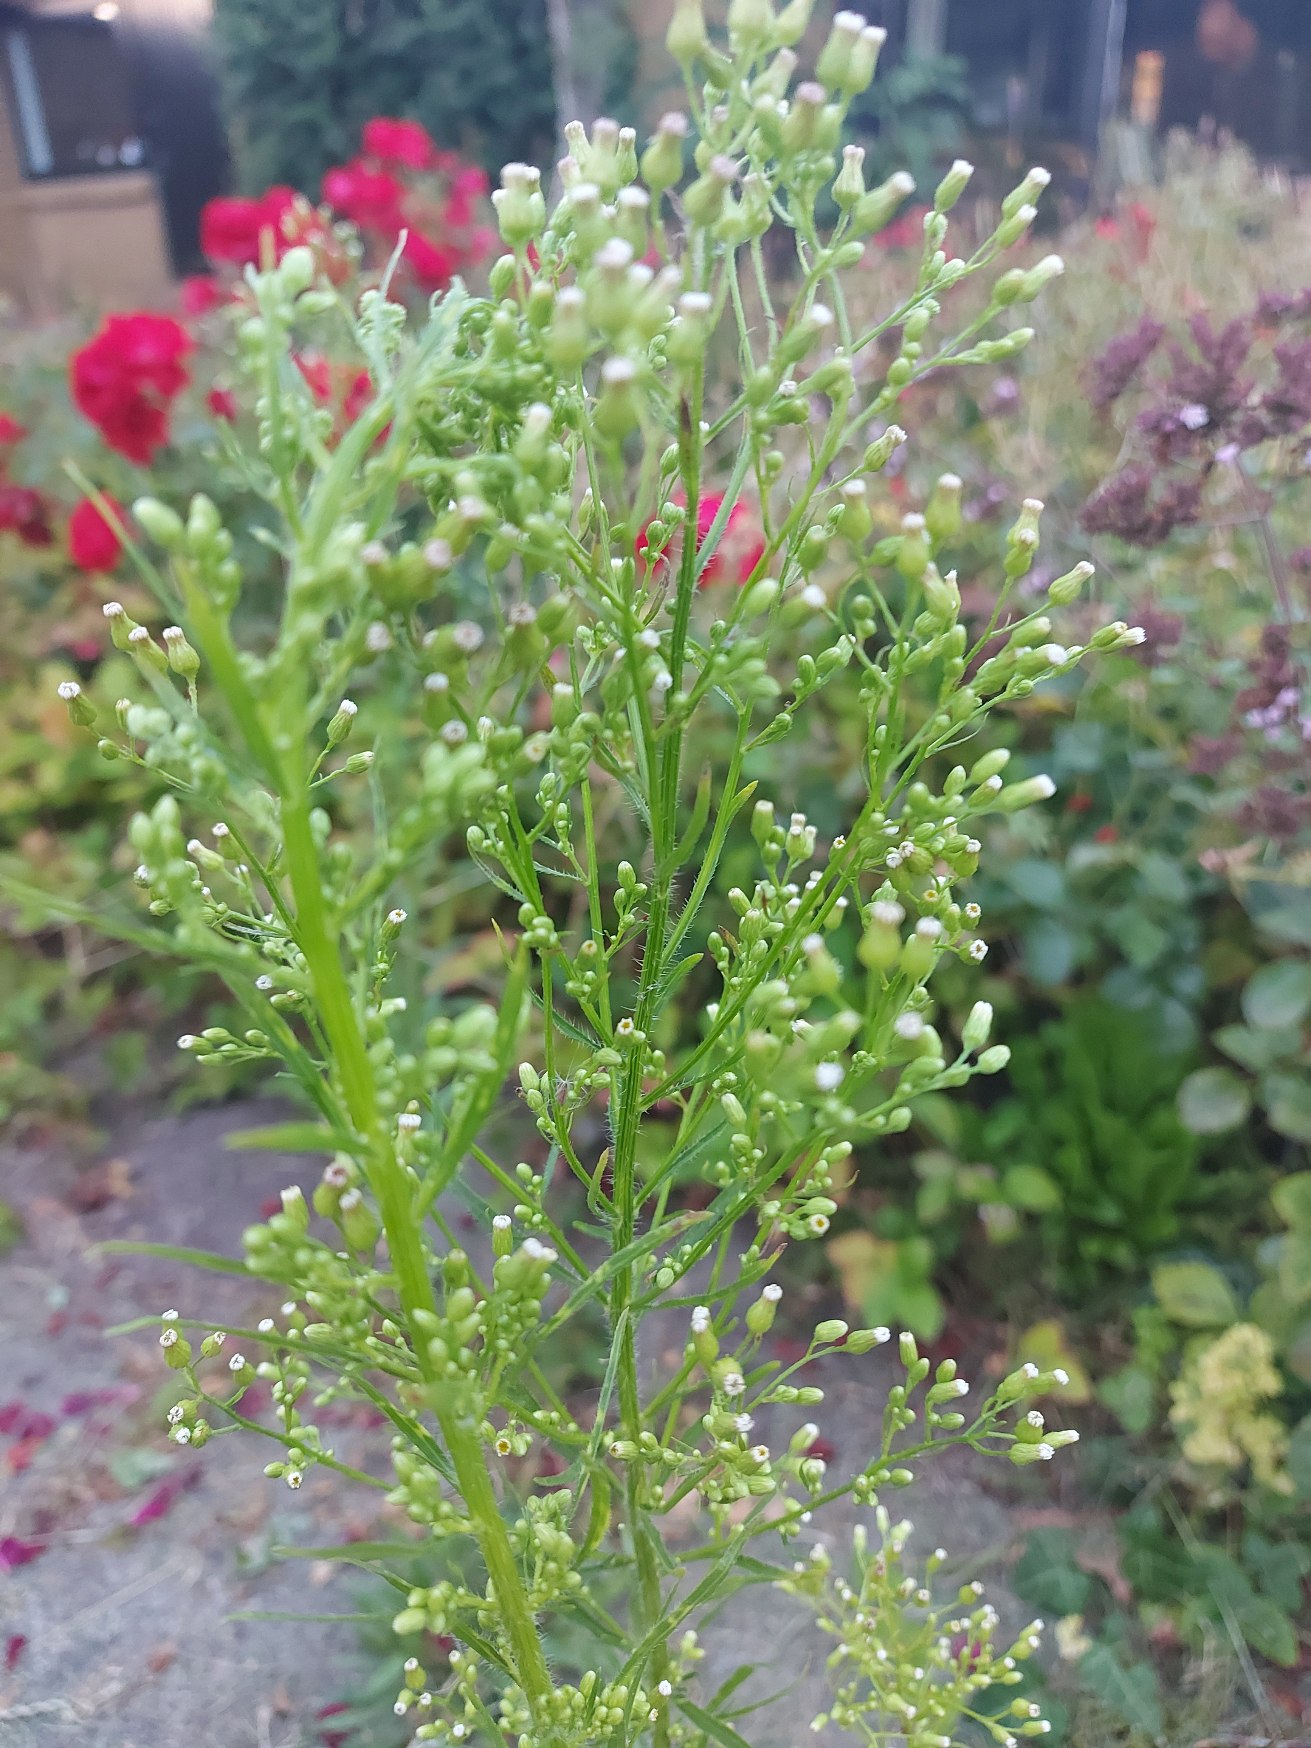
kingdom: Plantae
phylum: Tracheophyta
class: Magnoliopsida
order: Asterales
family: Asteraceae
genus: Erigeron
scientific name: Erigeron canadensis
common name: Kanadisk bakkestjerne
